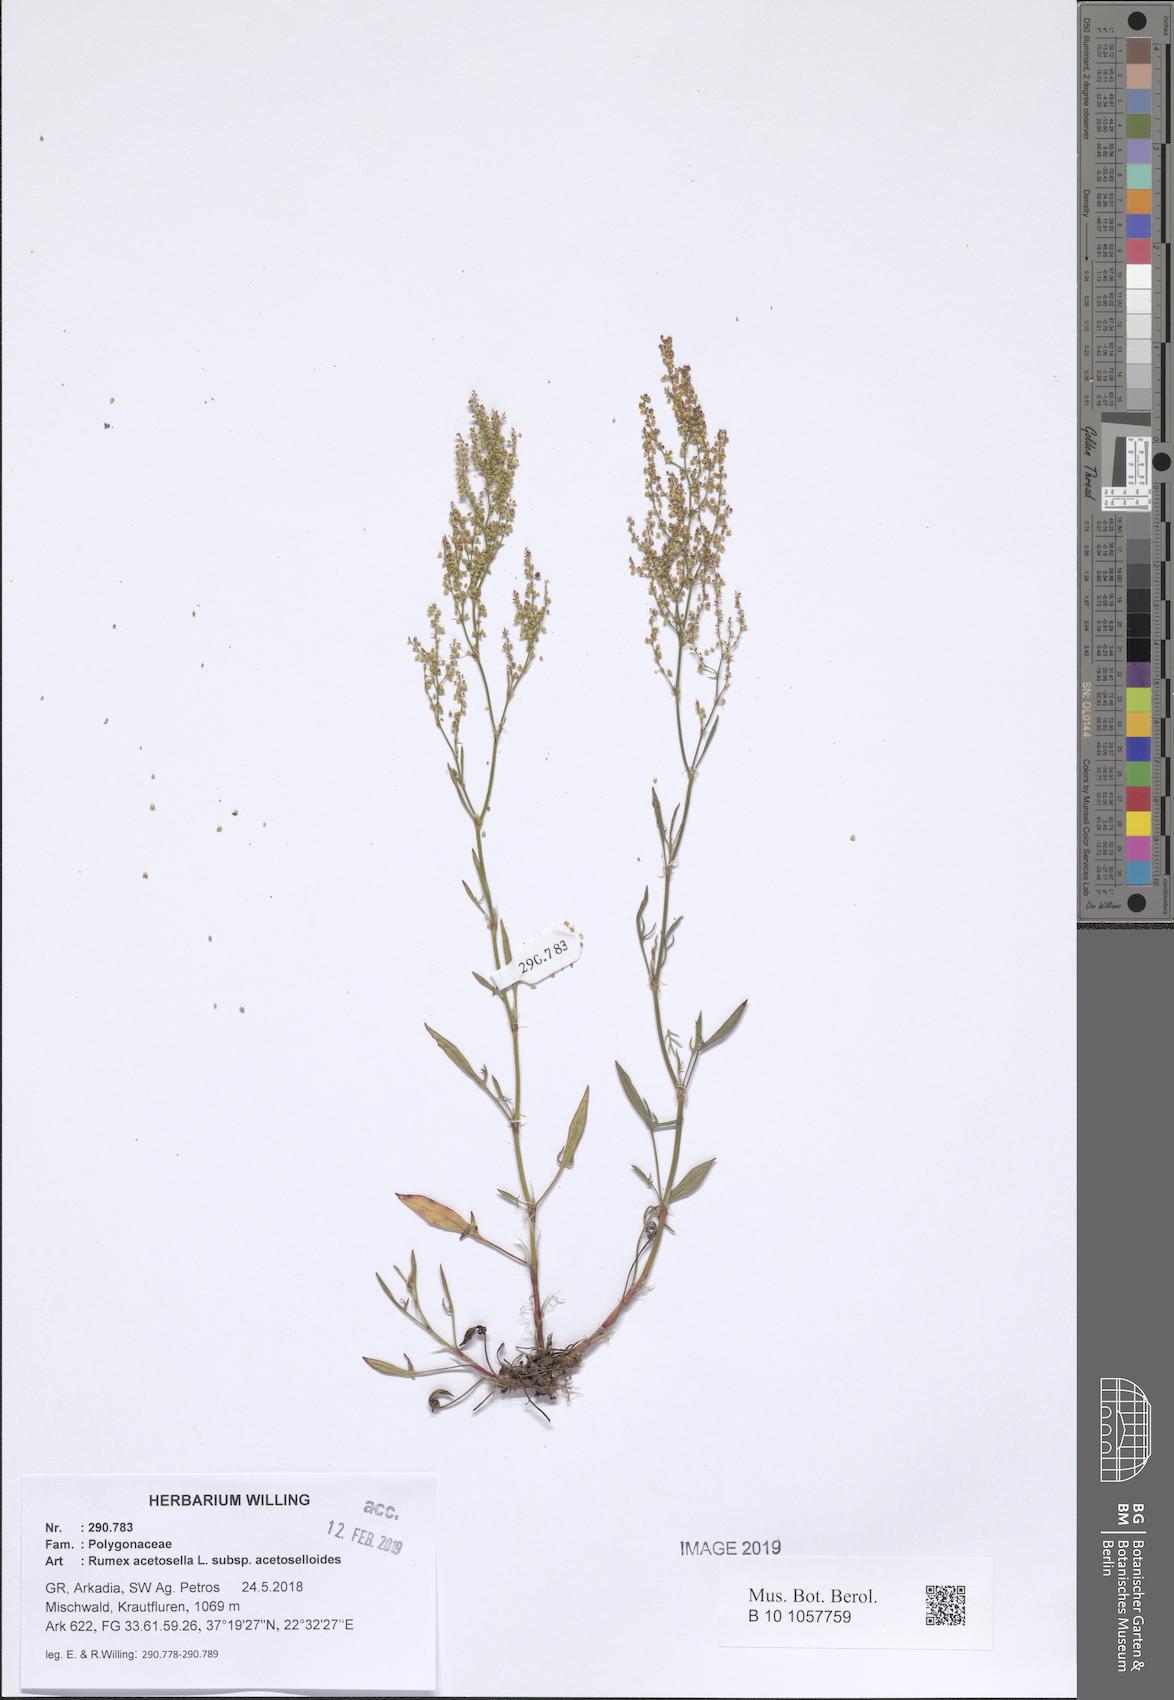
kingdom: Plantae
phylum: Tracheophyta
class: Magnoliopsida
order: Caryophyllales
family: Polygonaceae
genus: Rumex
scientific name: Rumex acetosella
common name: Common sheep sorrel
